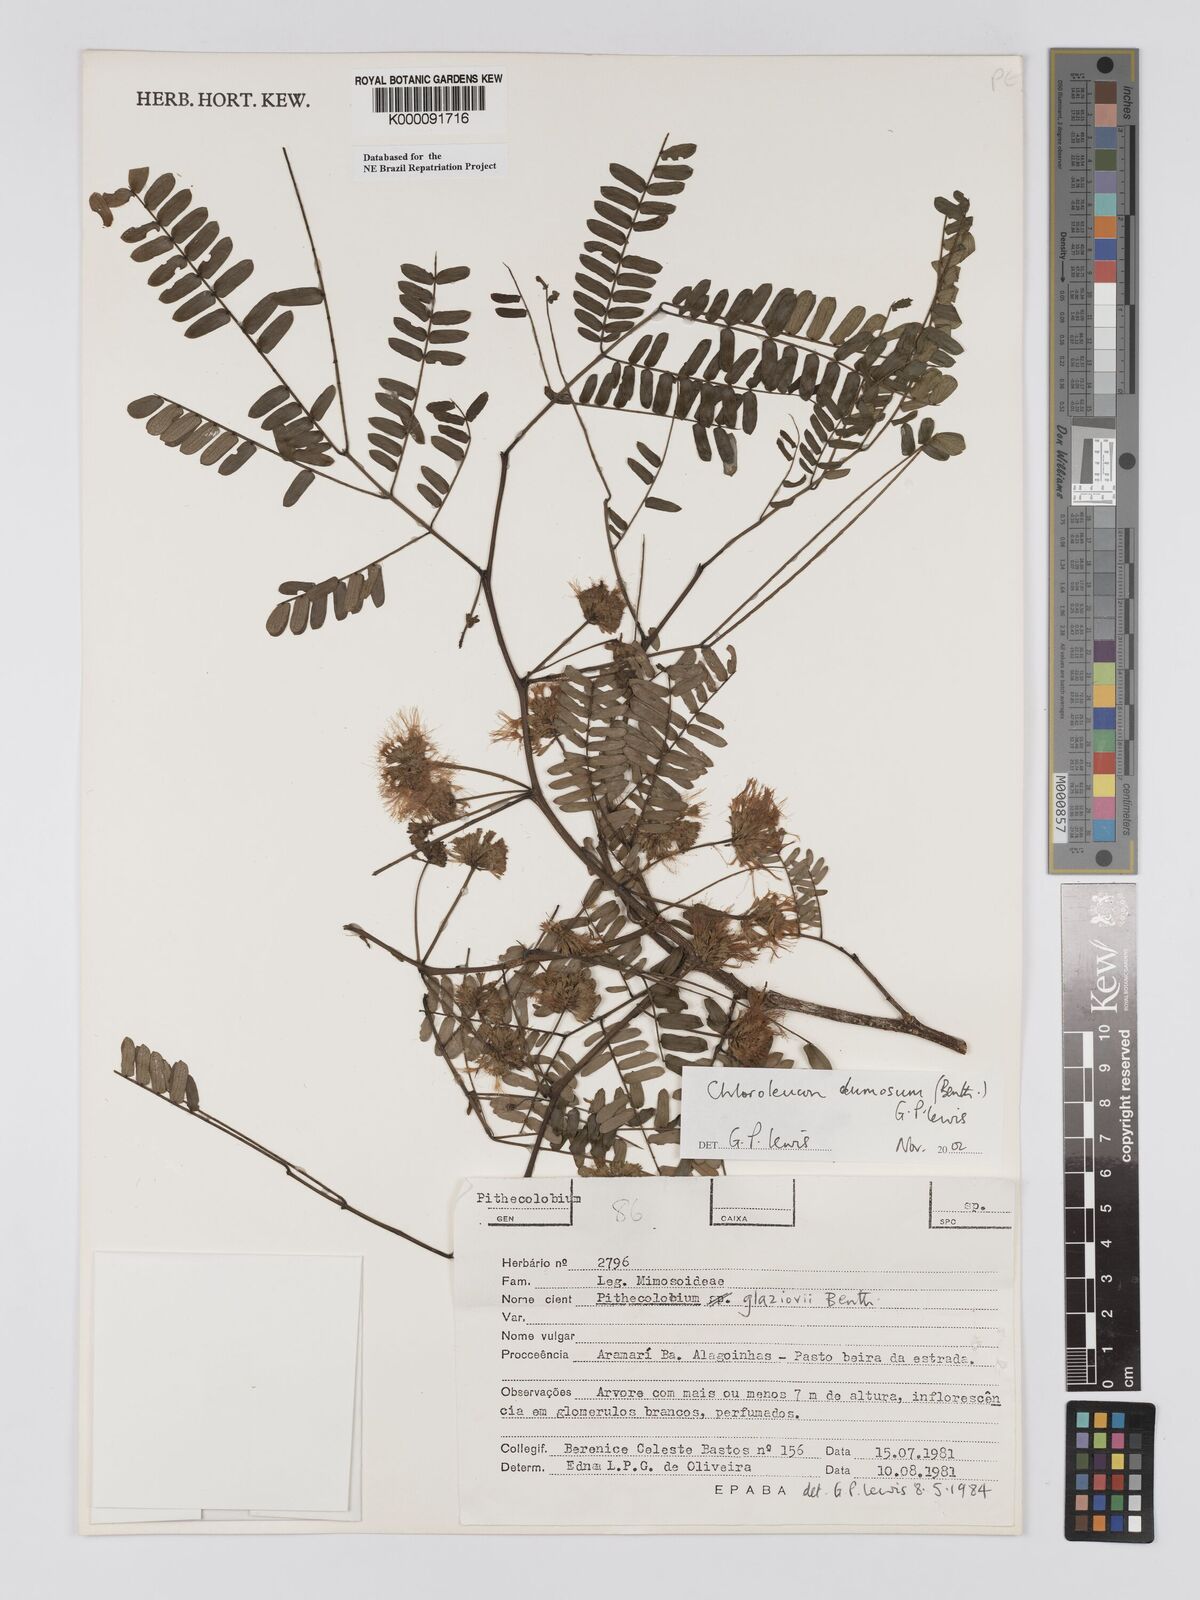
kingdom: Plantae
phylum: Tracheophyta
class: Magnoliopsida
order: Fabales
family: Fabaceae
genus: Chloroleucon
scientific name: Chloroleucon dumosum
